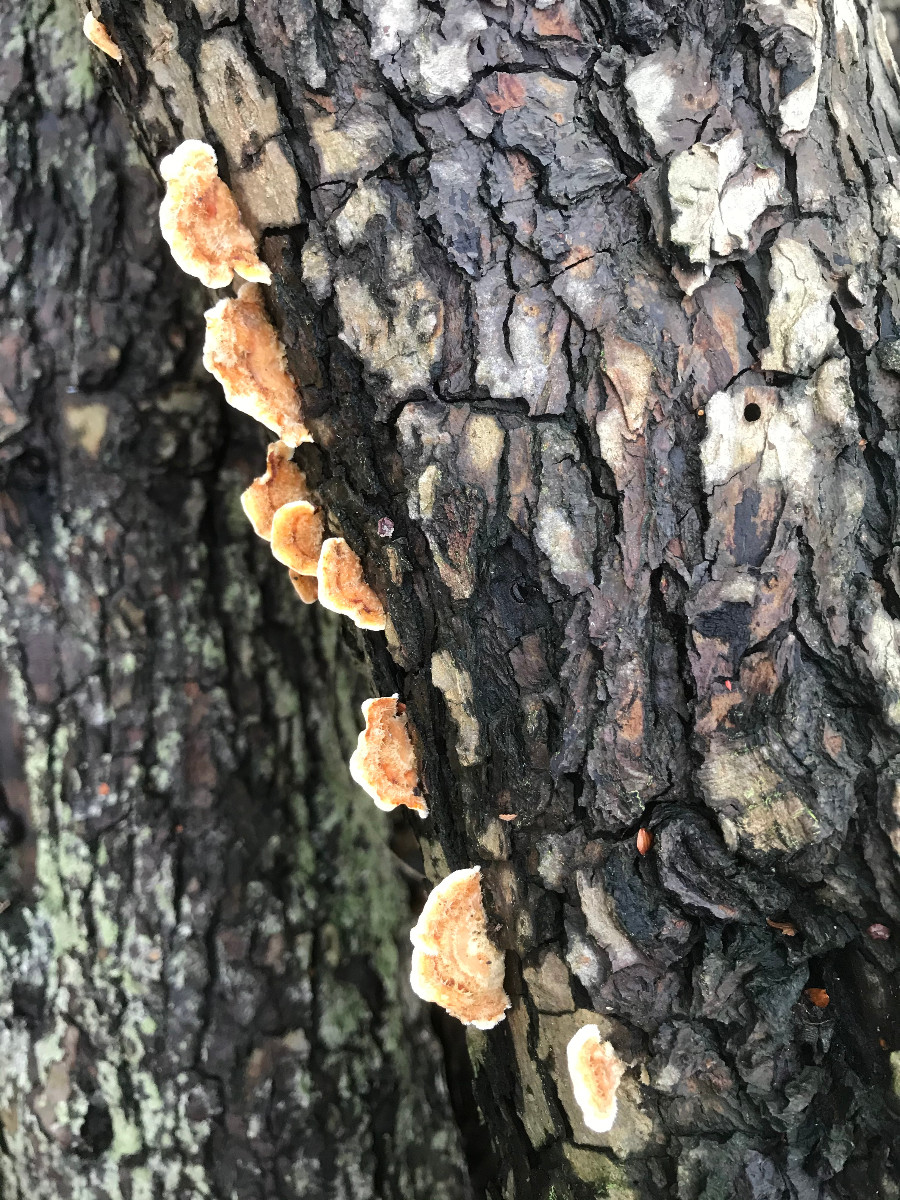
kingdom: Fungi
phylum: Basidiomycota
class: Agaricomycetes
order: Russulales
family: Stereaceae
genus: Stereum
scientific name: Stereum subtomentosum
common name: smuk lædersvamp
